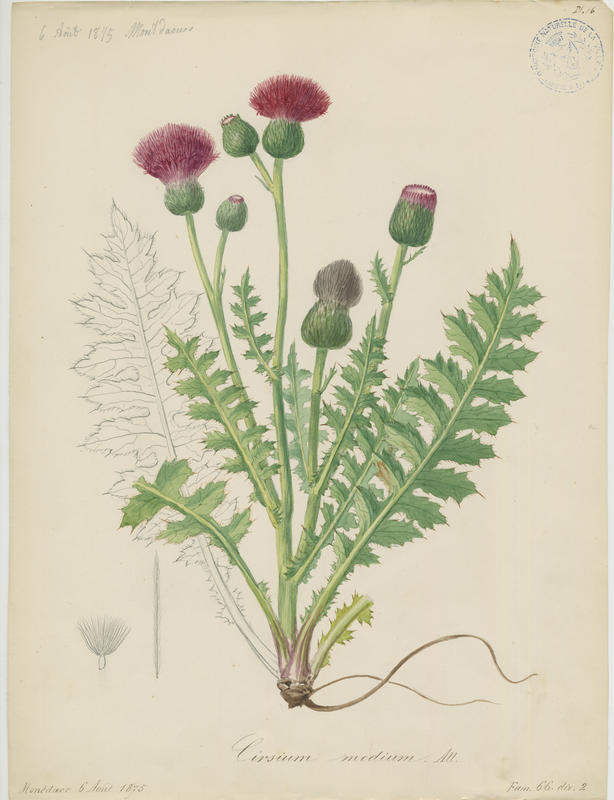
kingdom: Plantae
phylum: Tracheophyta
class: Magnoliopsida
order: Asterales
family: Asteraceae
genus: Carduus
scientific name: Carduus defloratus
